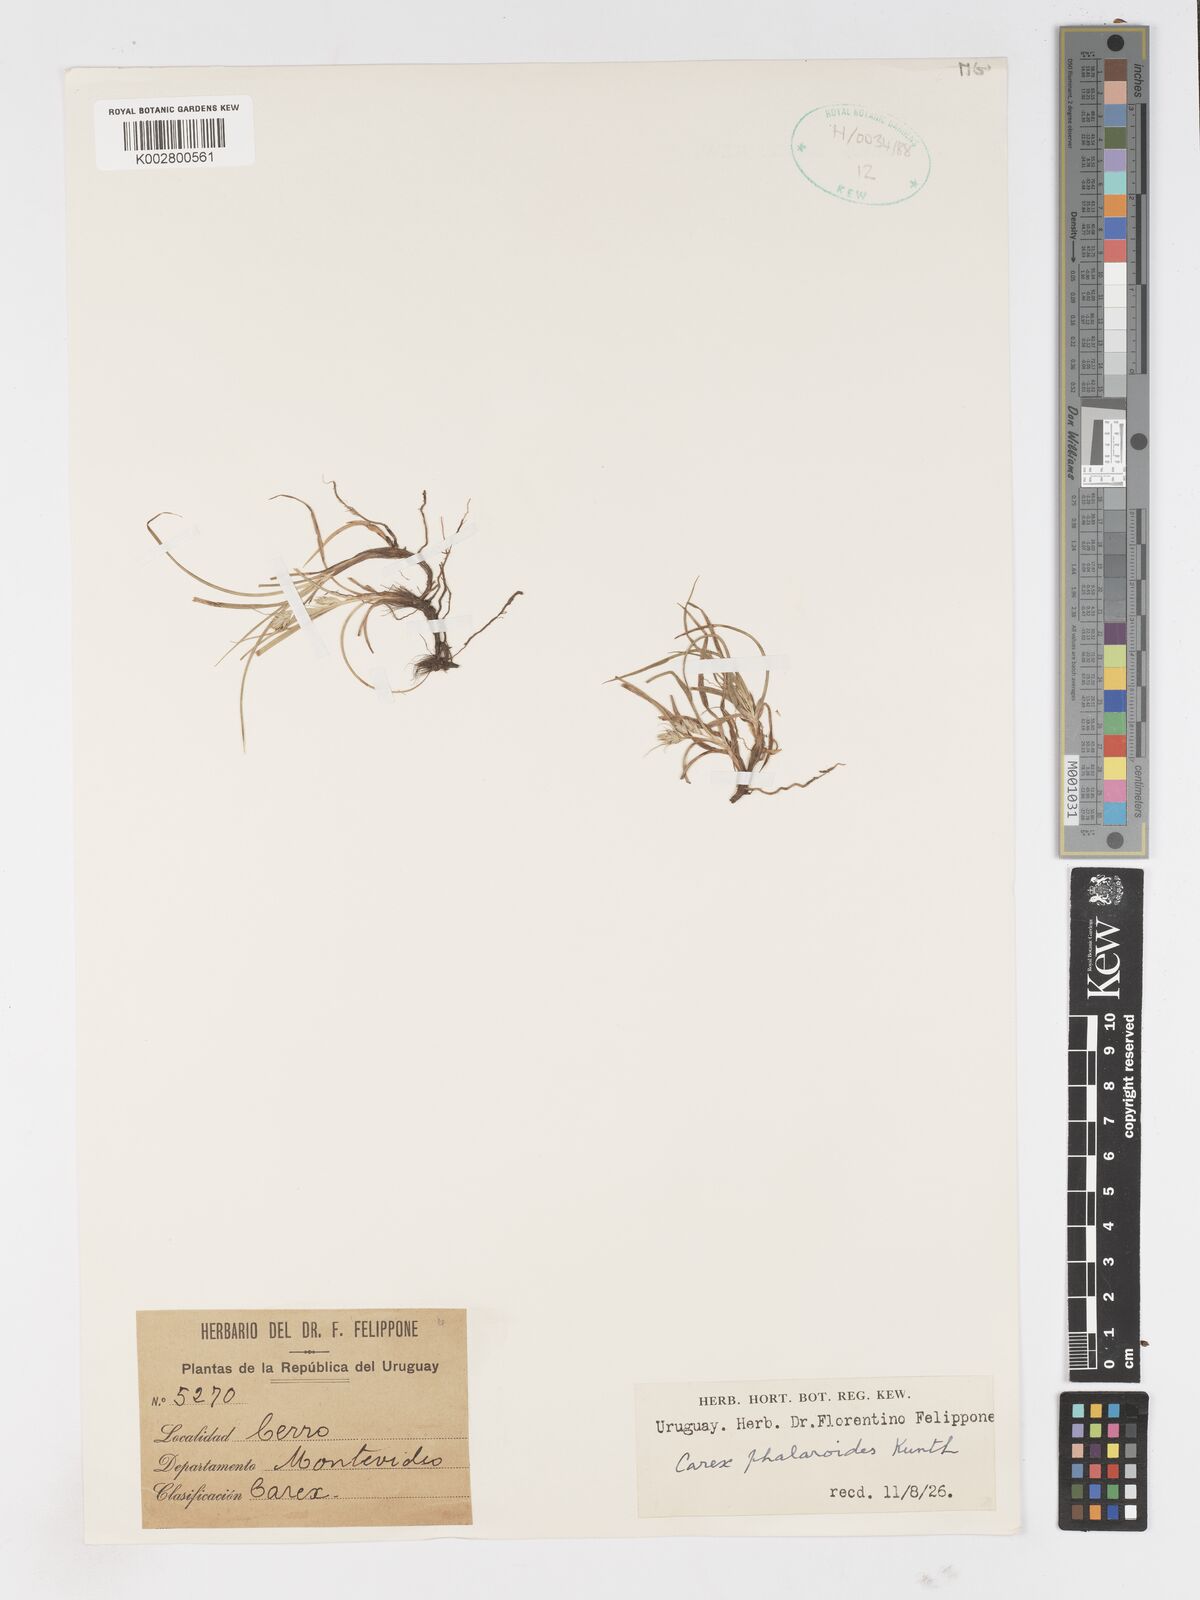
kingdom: Plantae
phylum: Tracheophyta
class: Liliopsida
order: Poales
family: Cyperaceae
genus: Carex
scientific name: Carex phalaroides
